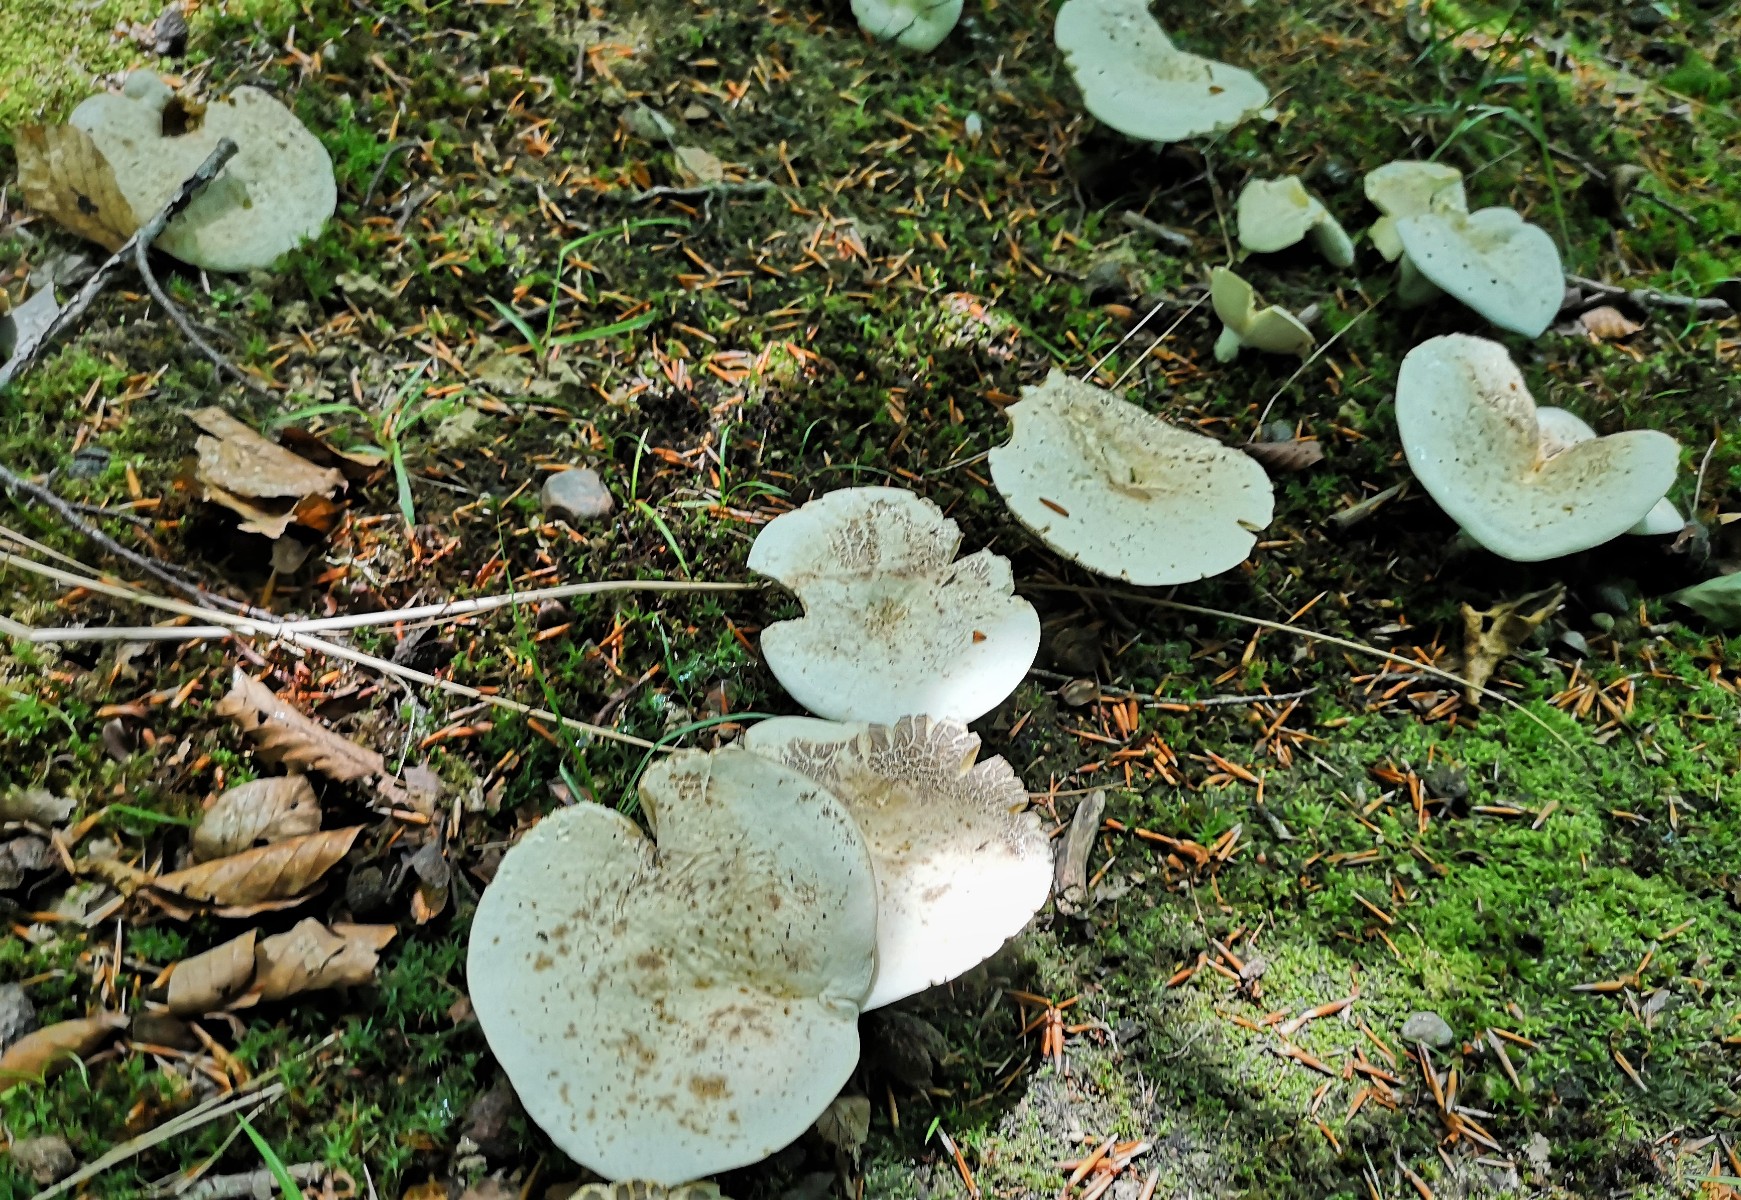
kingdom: Fungi
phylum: Basidiomycota
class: Agaricomycetes
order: Russulales
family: Russulaceae
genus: Lactifluus
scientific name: Lactifluus
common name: mælkehat
